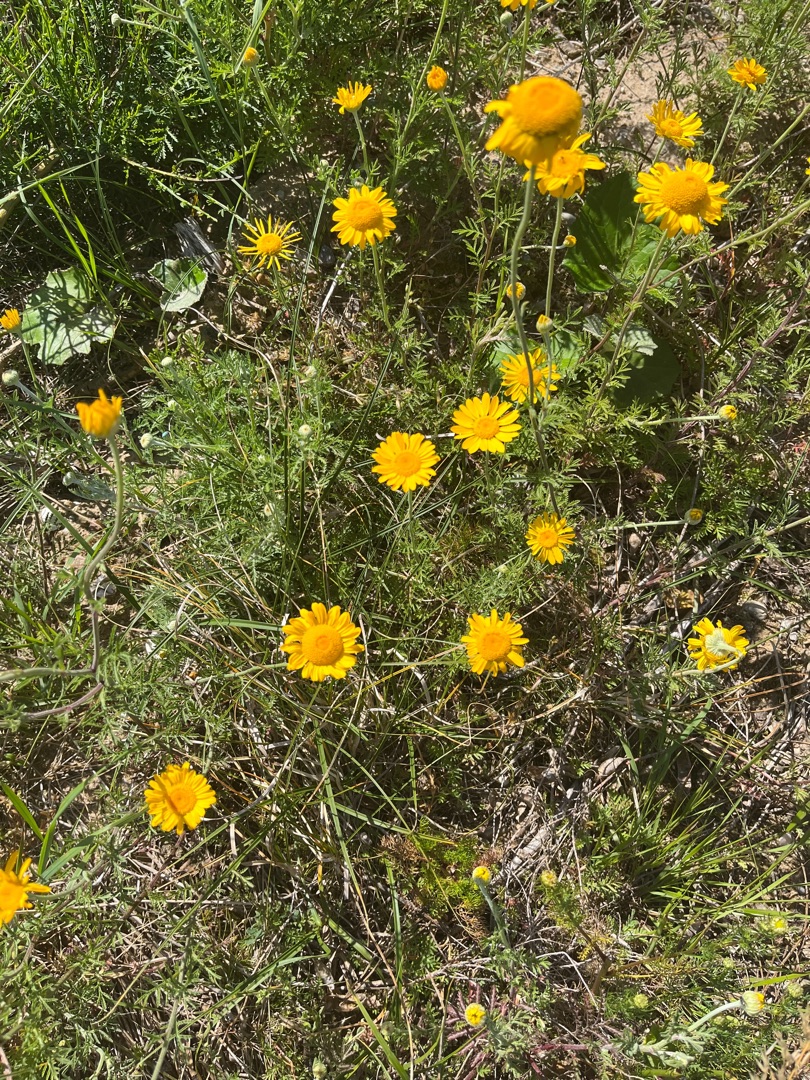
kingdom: Plantae
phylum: Tracheophyta
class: Magnoliopsida
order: Asterales
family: Asteraceae
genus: Cota
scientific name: Cota tinctoria
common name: Farve-gåseurt
